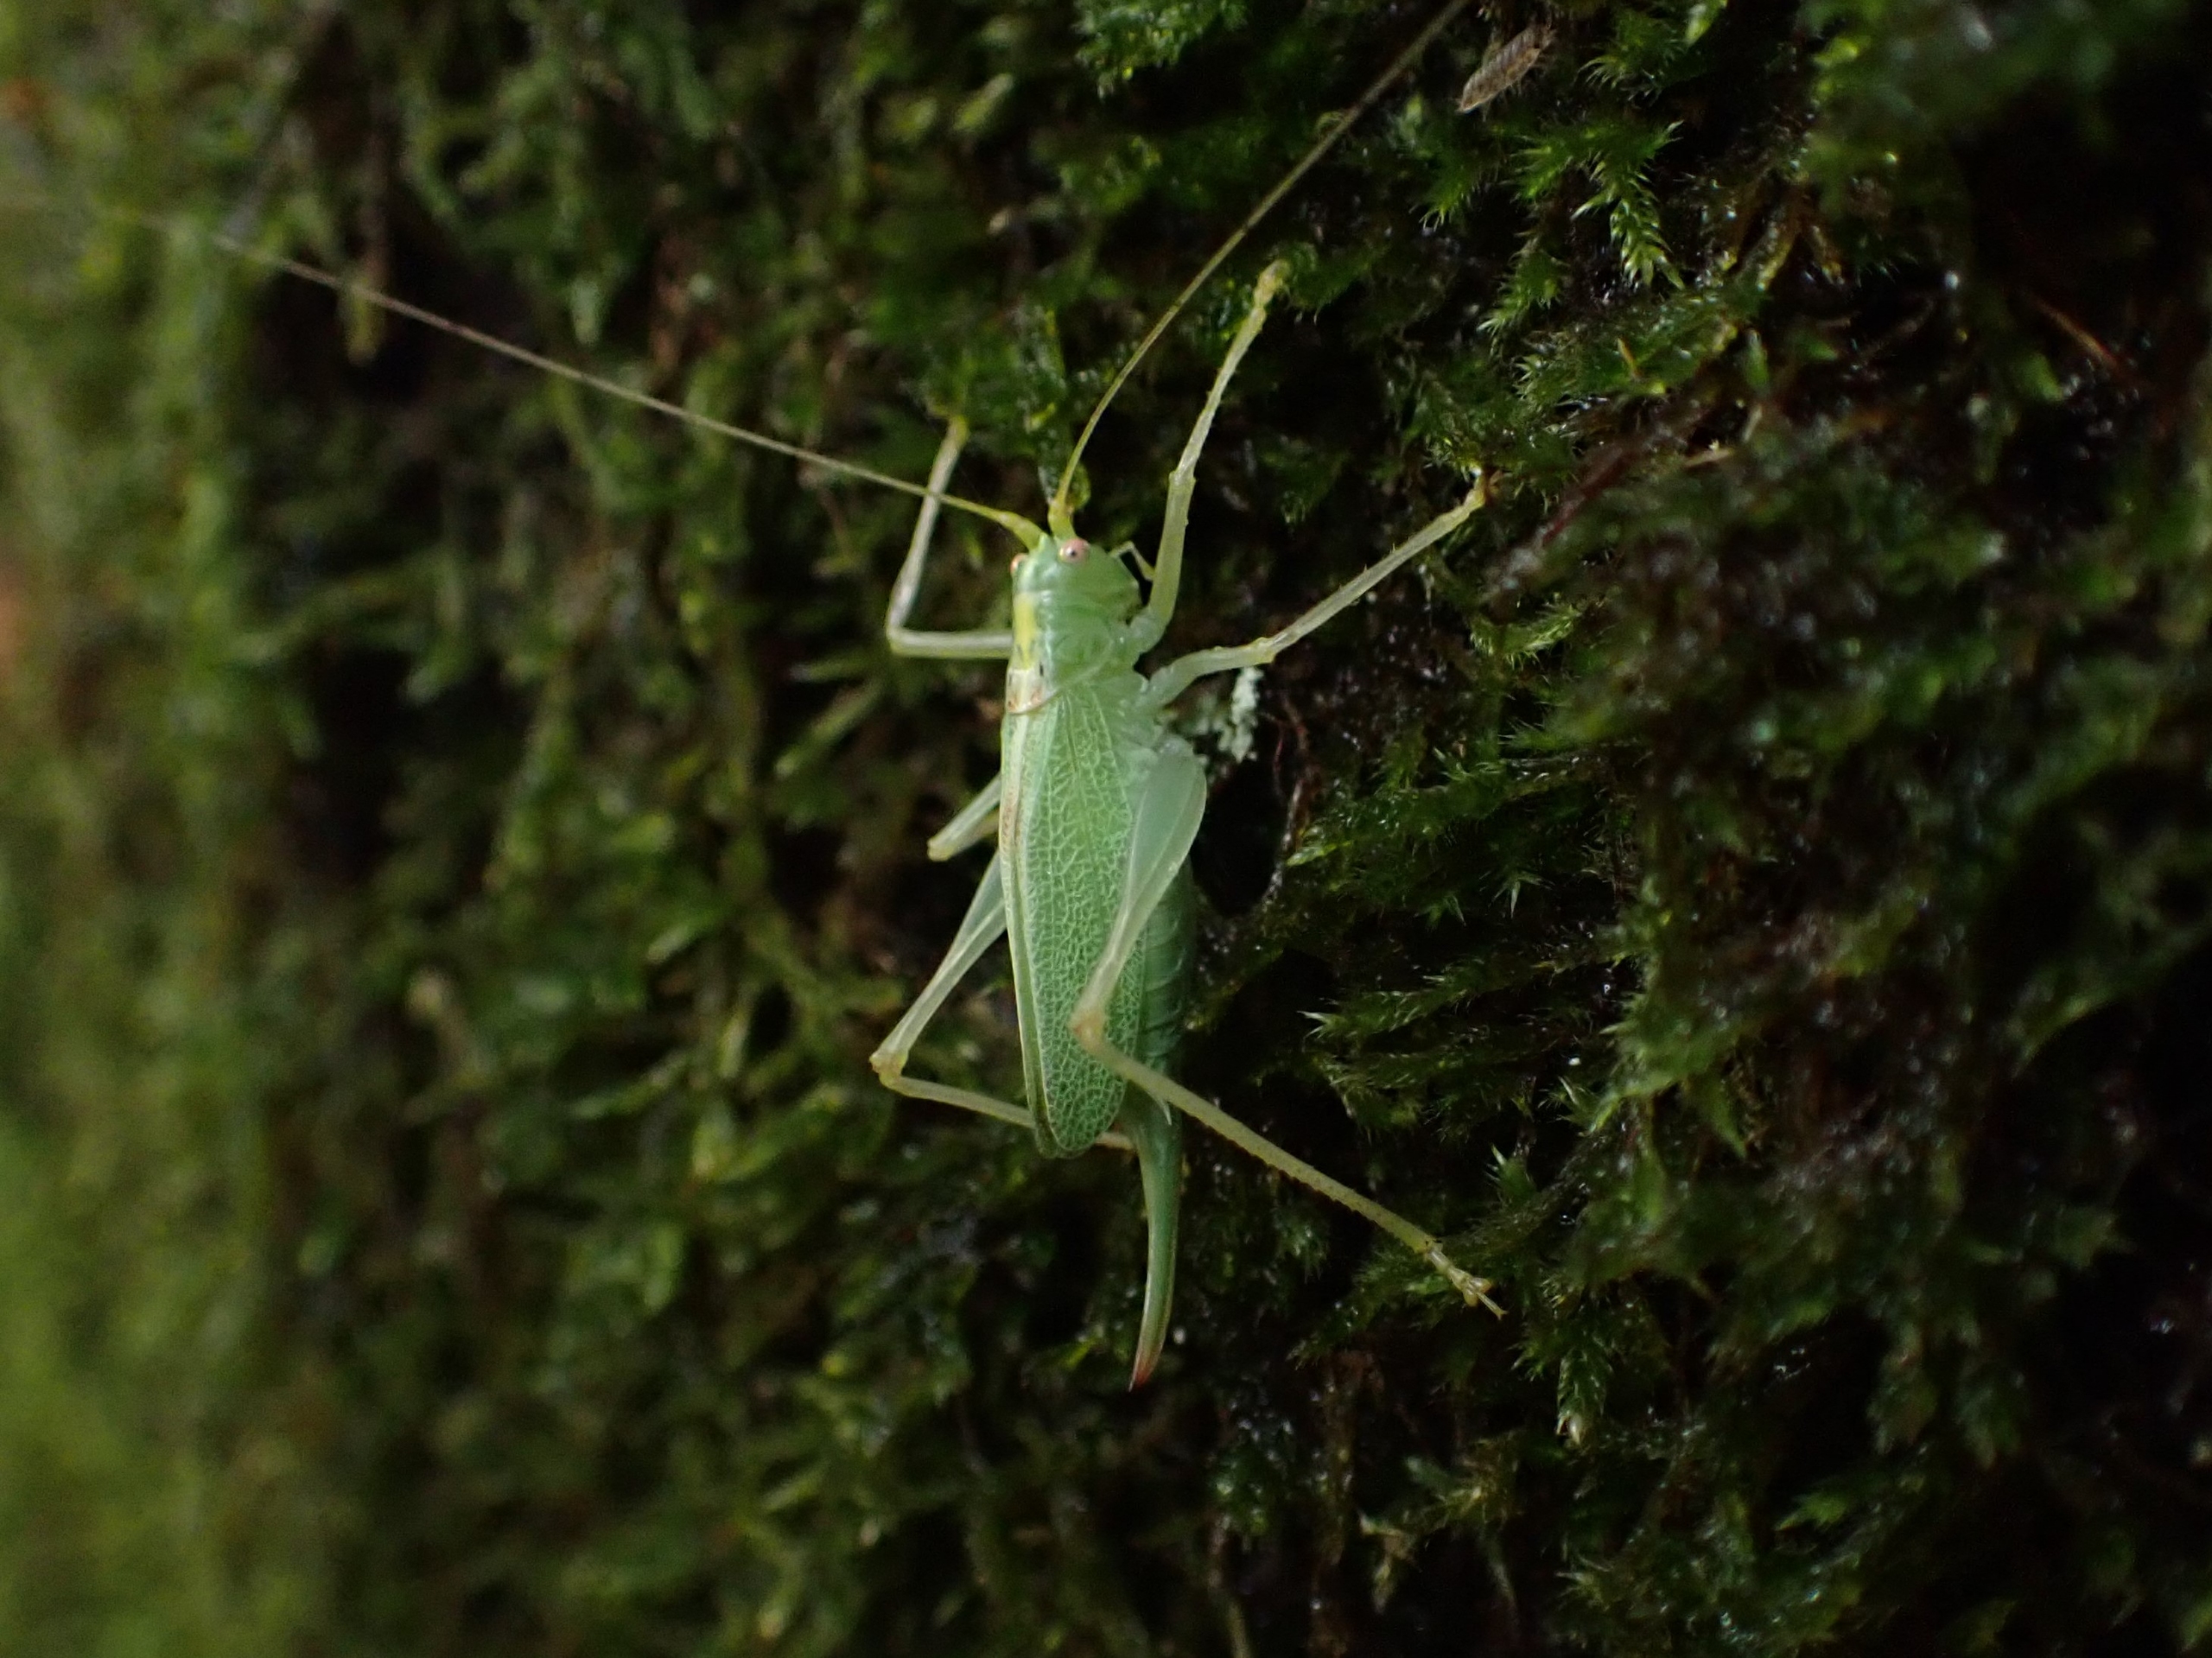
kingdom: Animalia
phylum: Arthropoda
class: Insecta
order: Orthoptera
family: Tettigoniidae
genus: Meconema
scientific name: Meconema thalassinum
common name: Egegræshoppe
